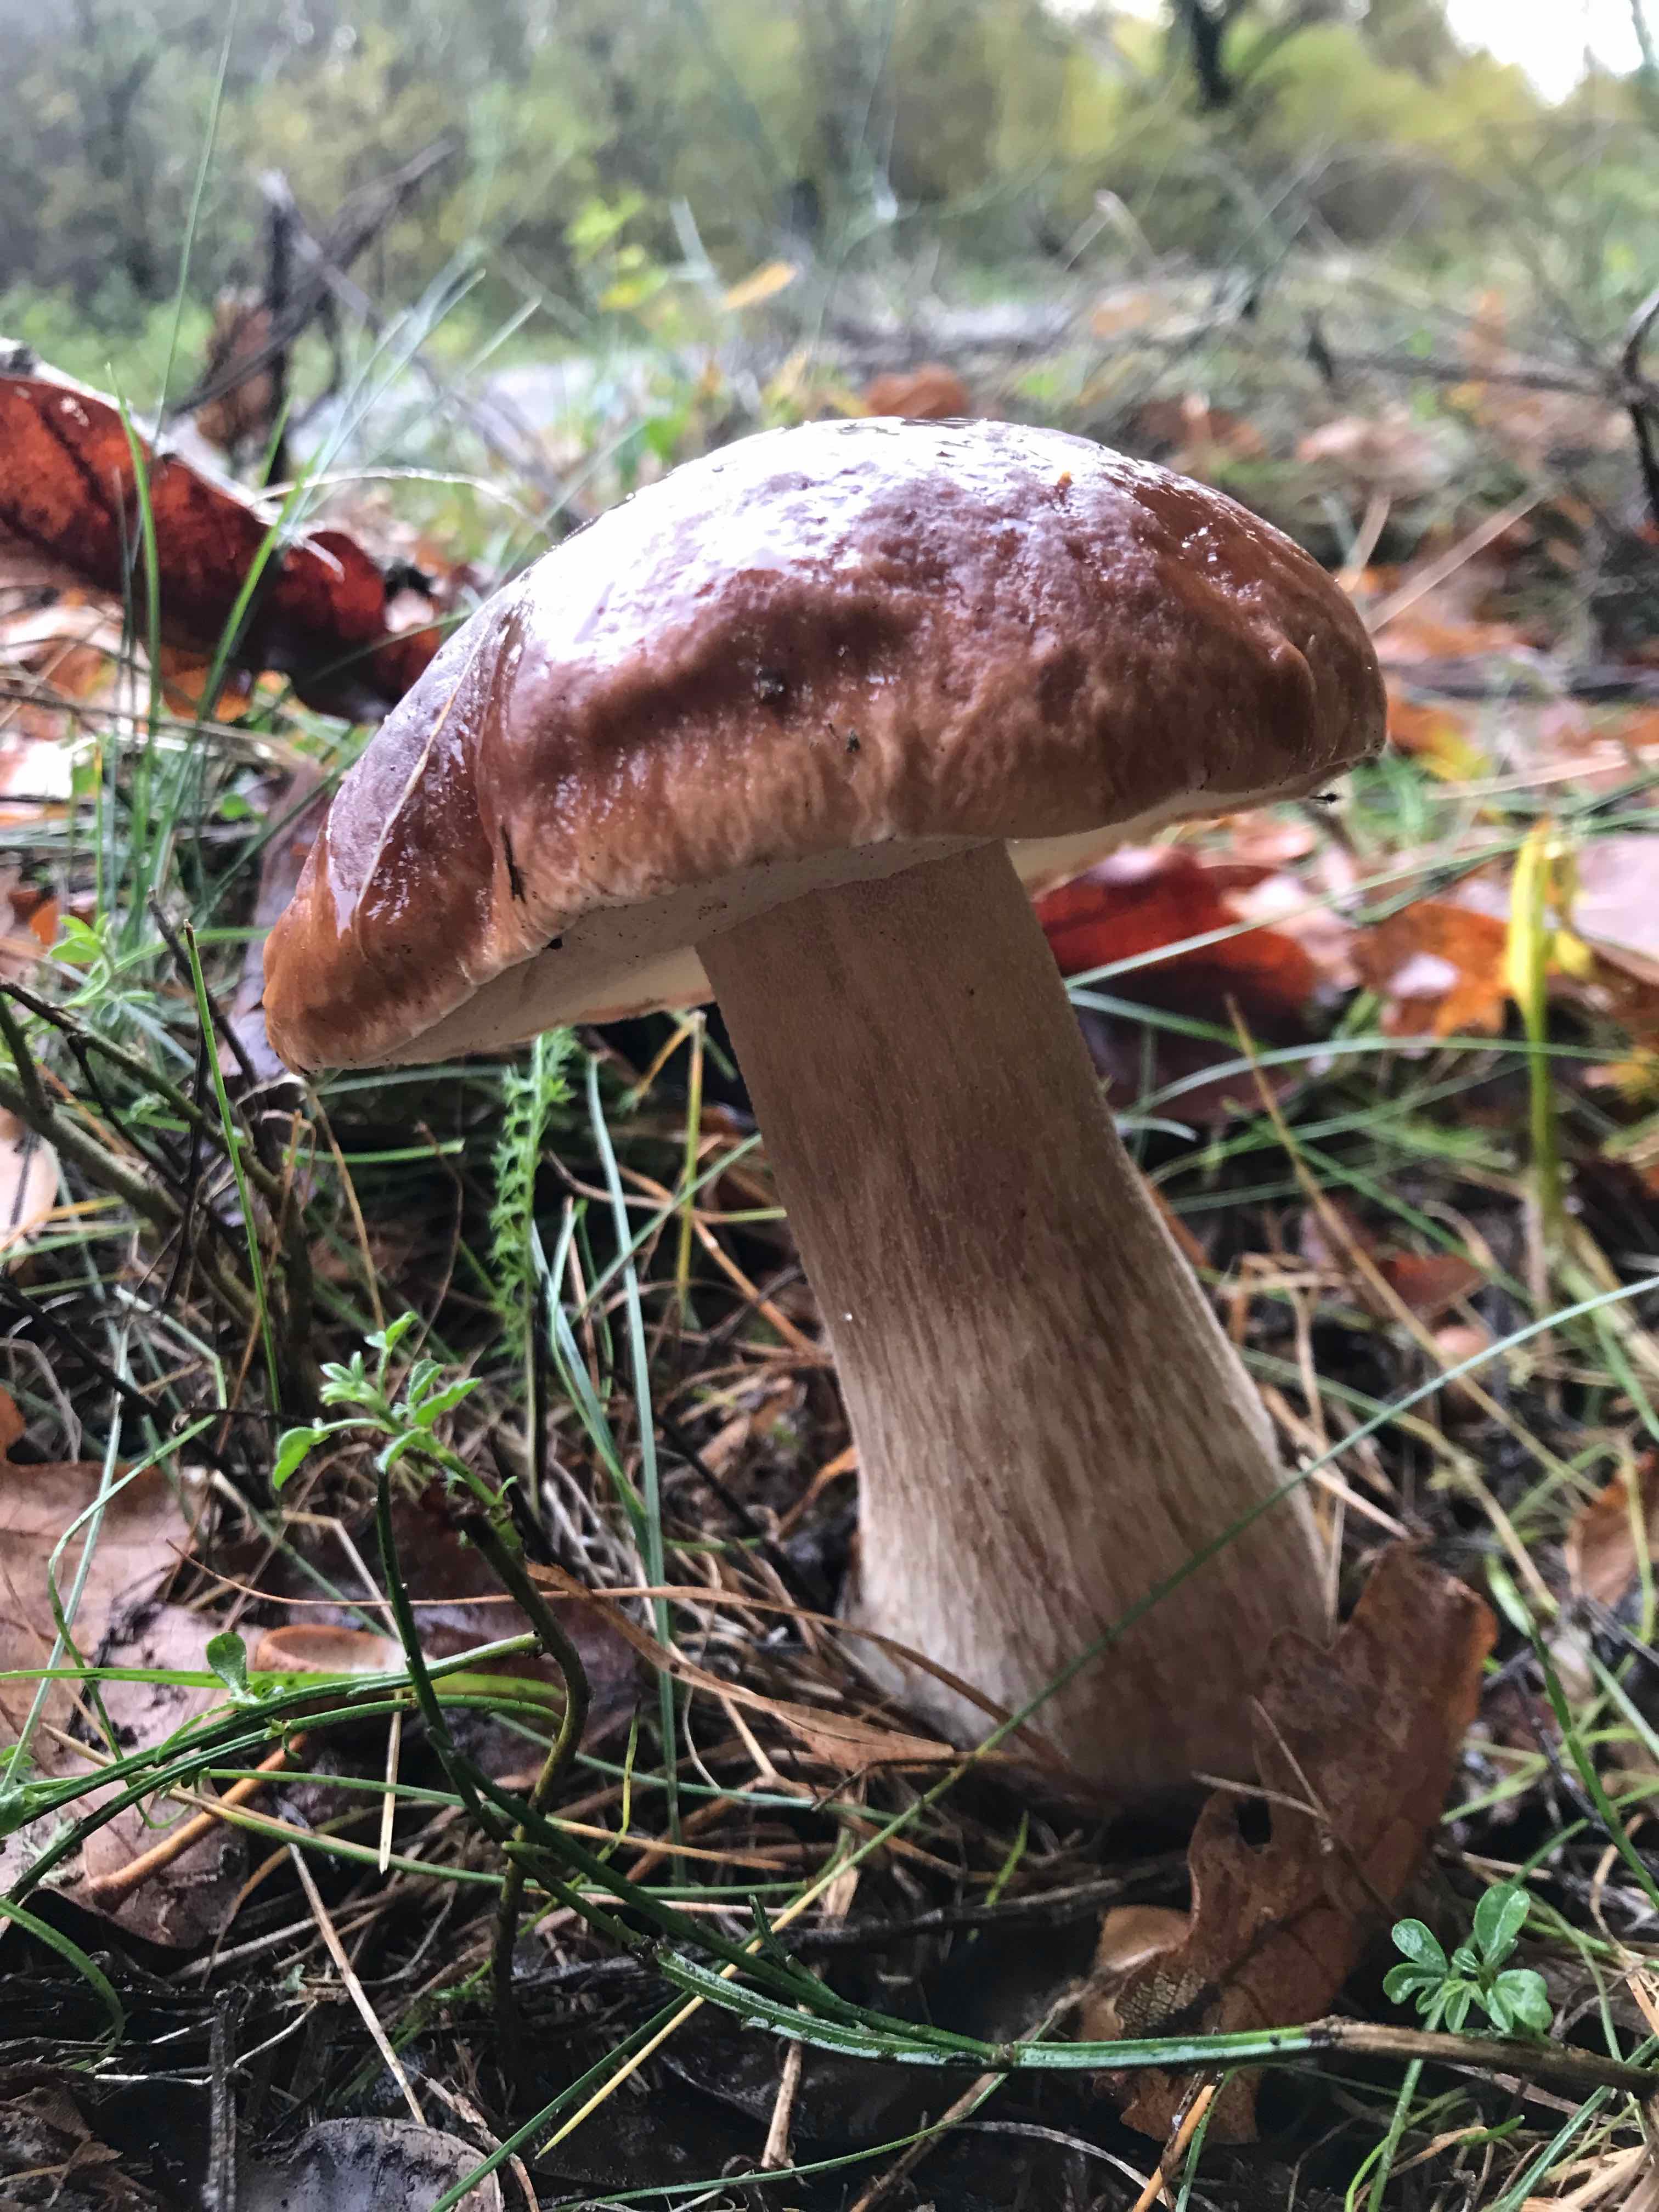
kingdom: Fungi
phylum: Basidiomycota
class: Agaricomycetes
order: Boletales
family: Boletaceae
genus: Boletus
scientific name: Boletus edulis
